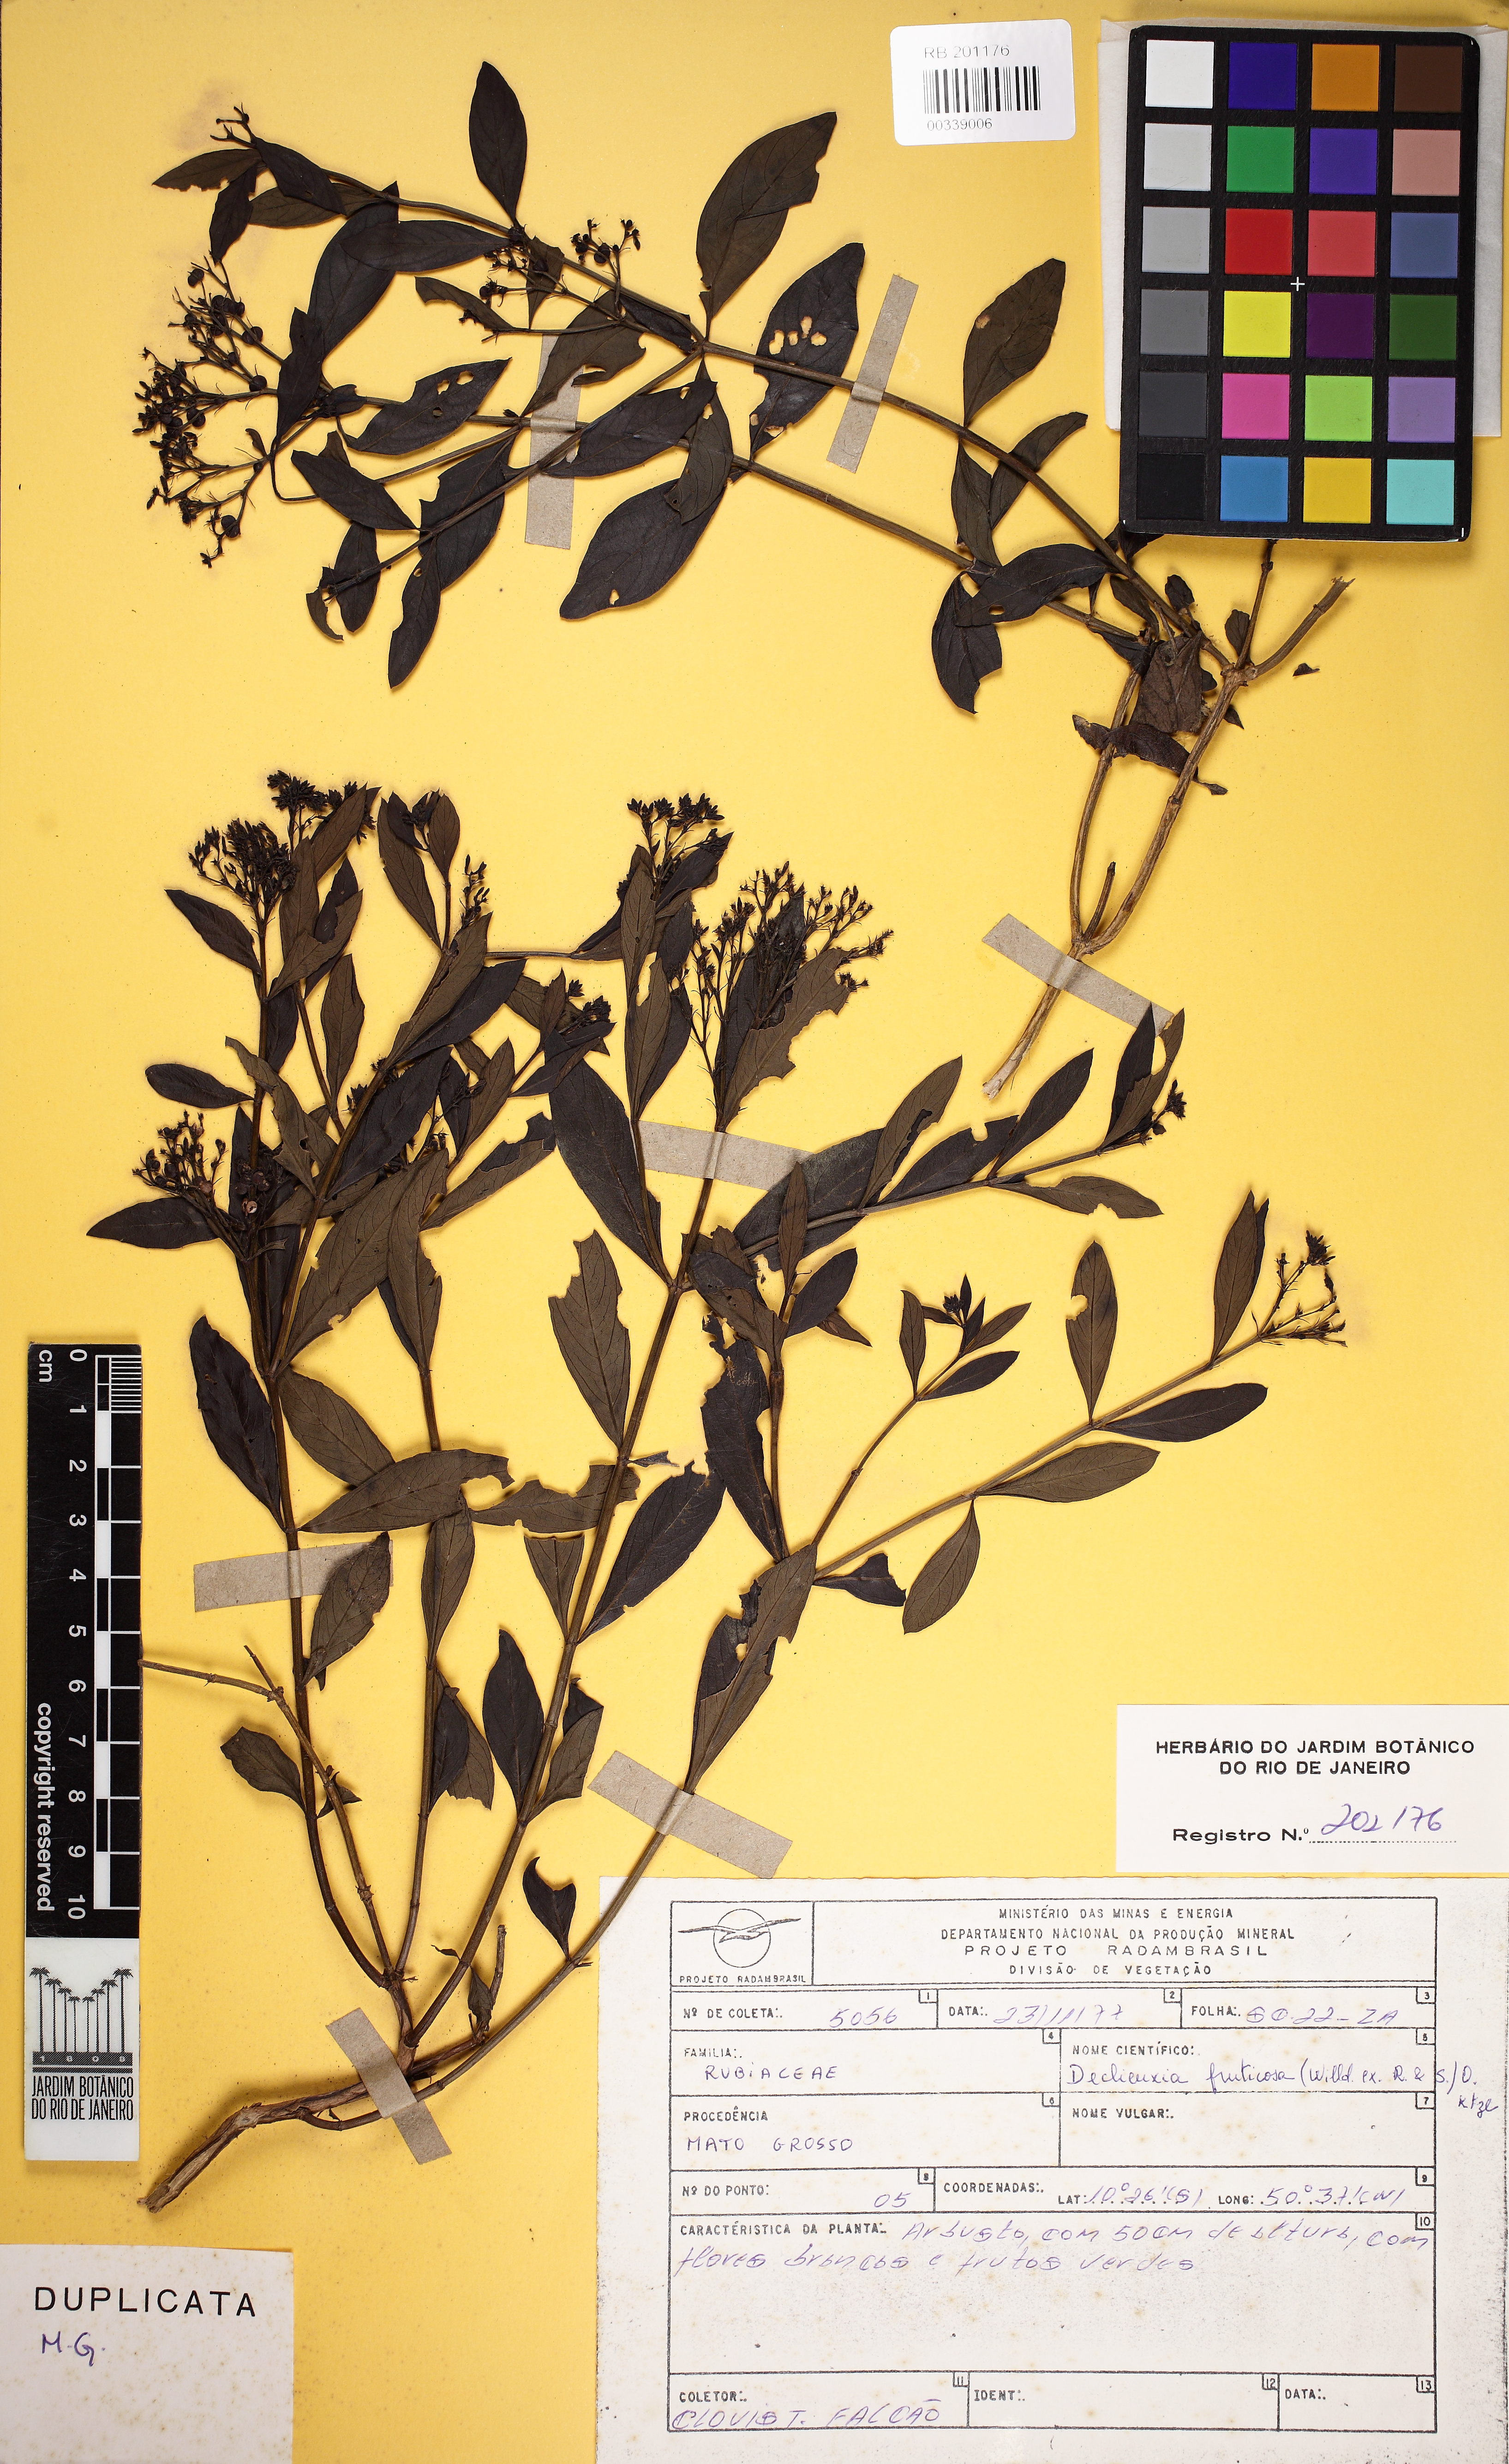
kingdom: Plantae
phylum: Tracheophyta
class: Magnoliopsida
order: Gentianales
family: Rubiaceae
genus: Declieuxia
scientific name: Declieuxia fruticosa
